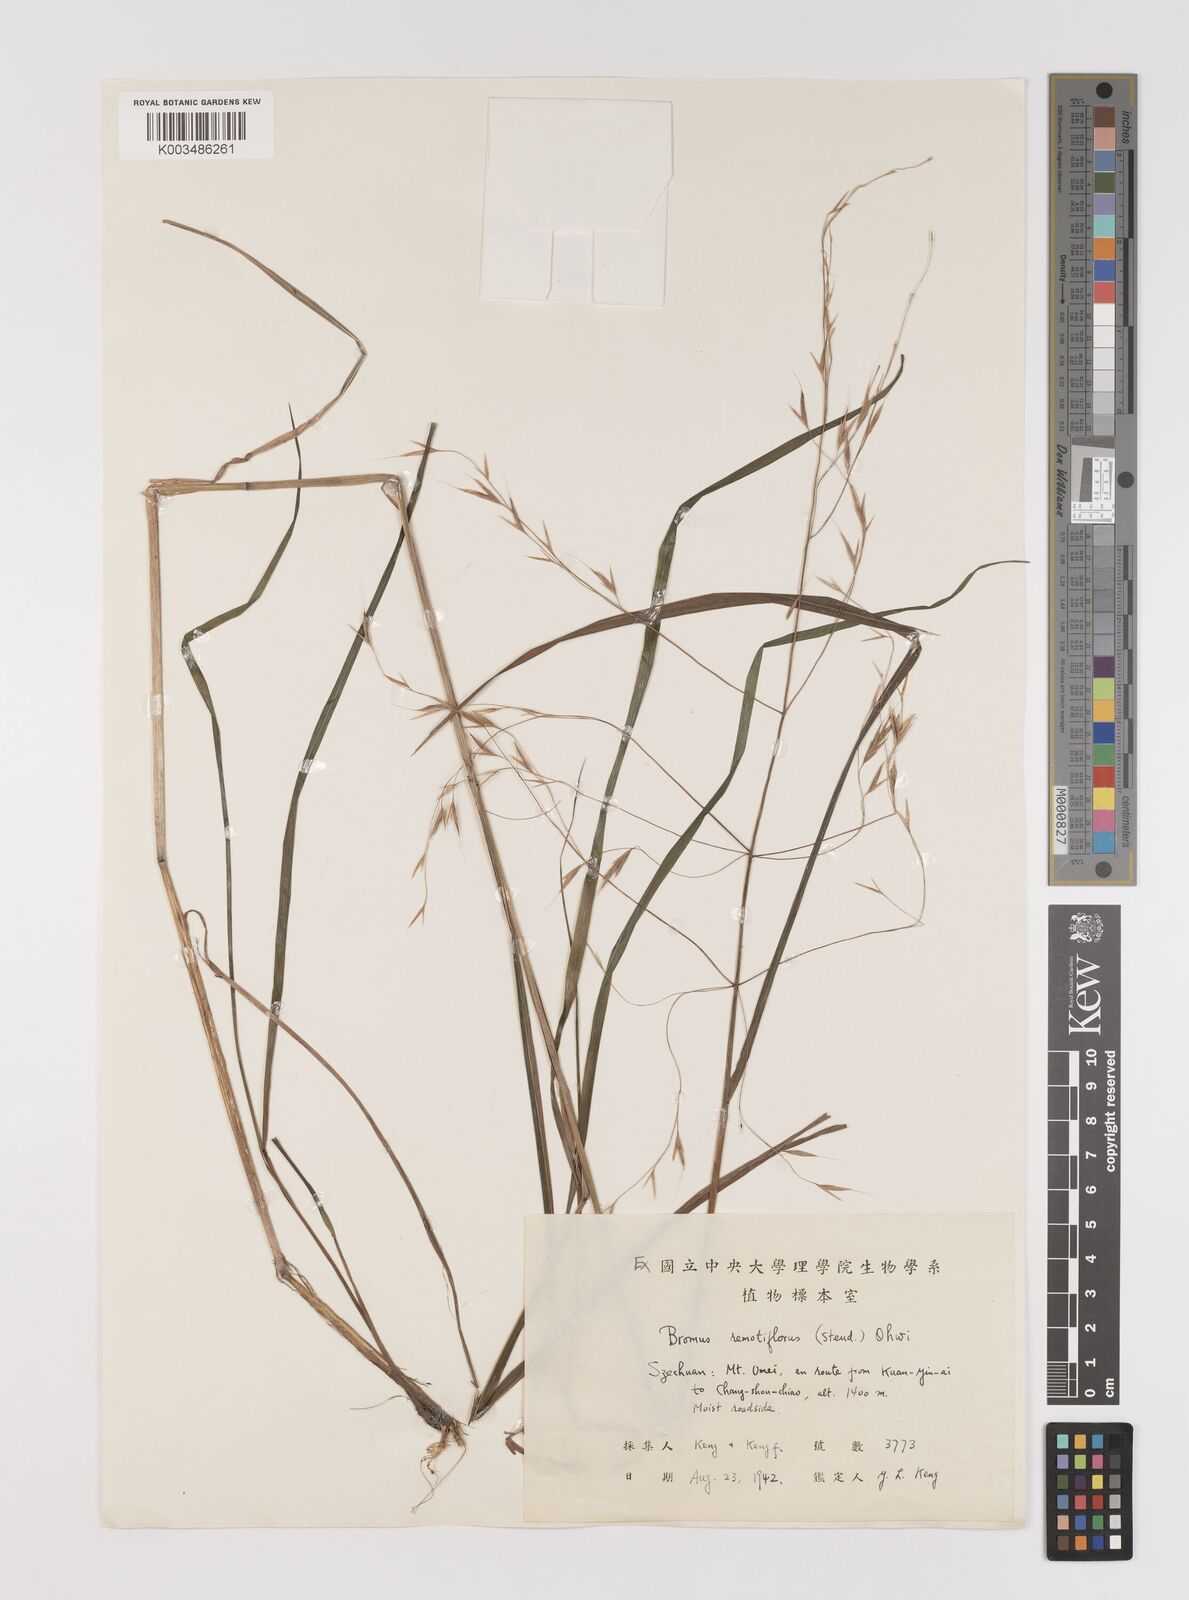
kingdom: Plantae
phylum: Tracheophyta
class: Liliopsida
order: Poales
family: Poaceae
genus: Bromus
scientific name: Bromus remotiflorus
